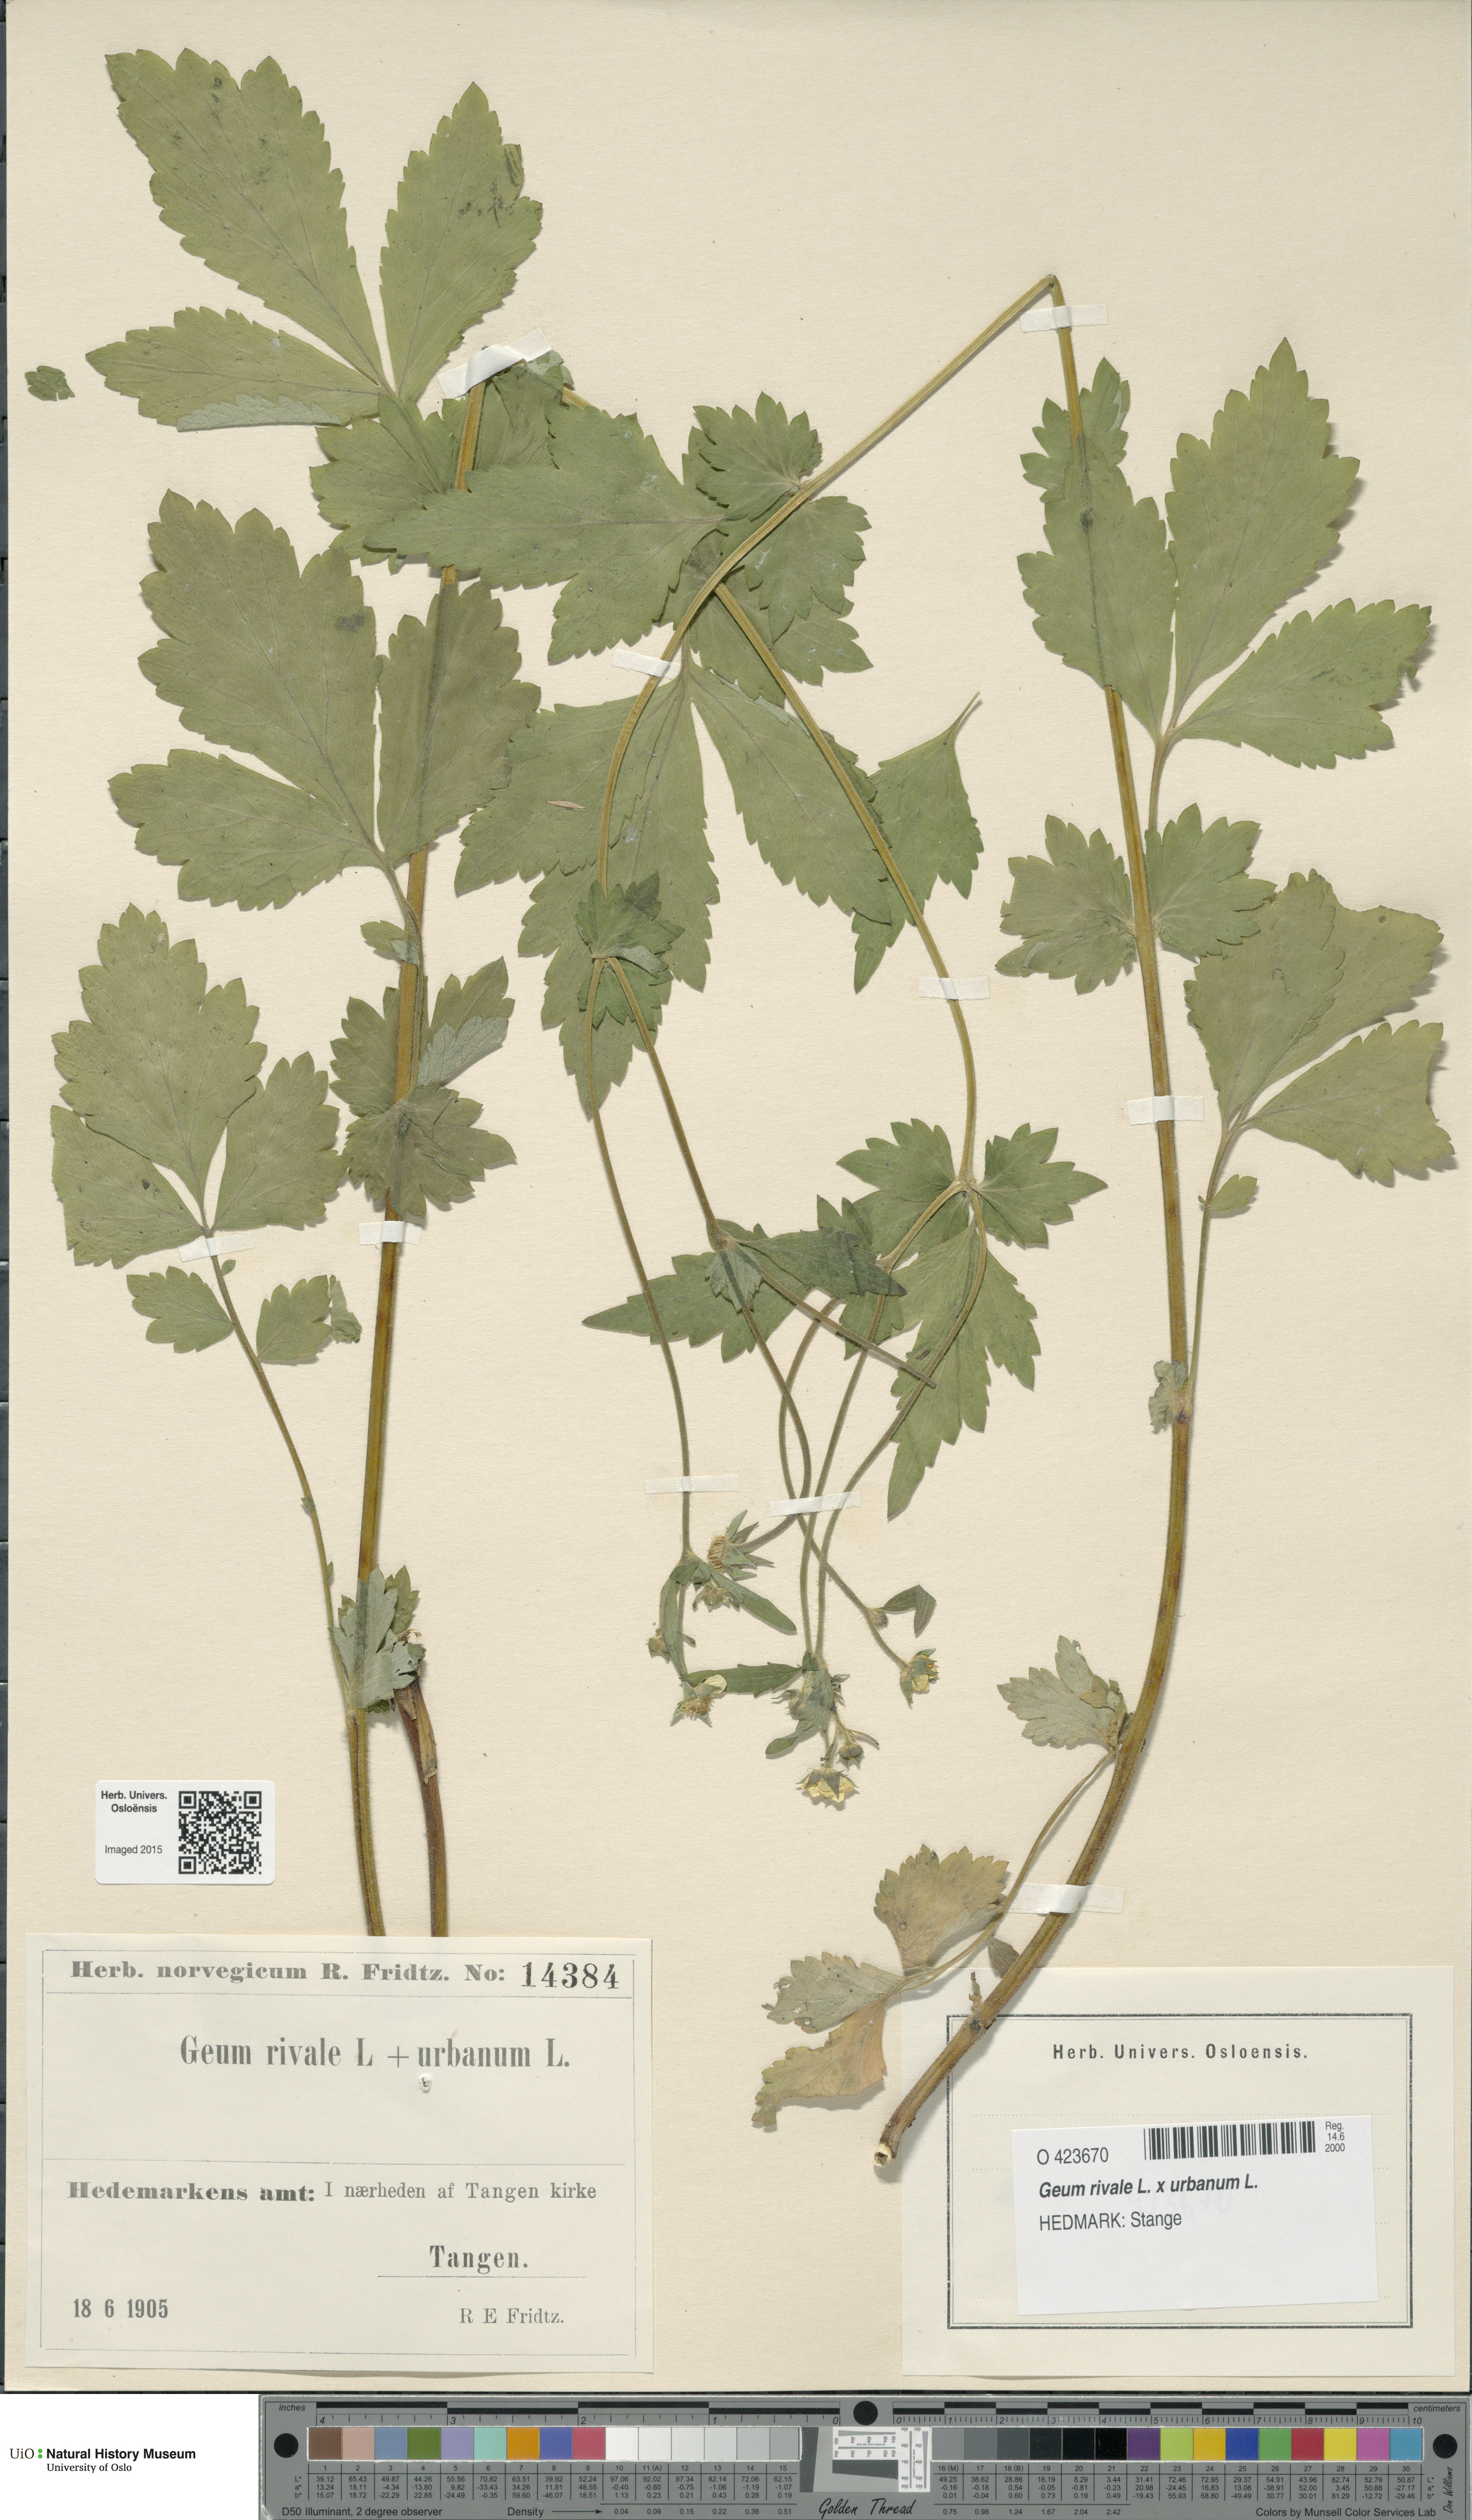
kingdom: Plantae
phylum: Tracheophyta
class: Magnoliopsida
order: Rosales
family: Rosaceae
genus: Geum
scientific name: Geum
